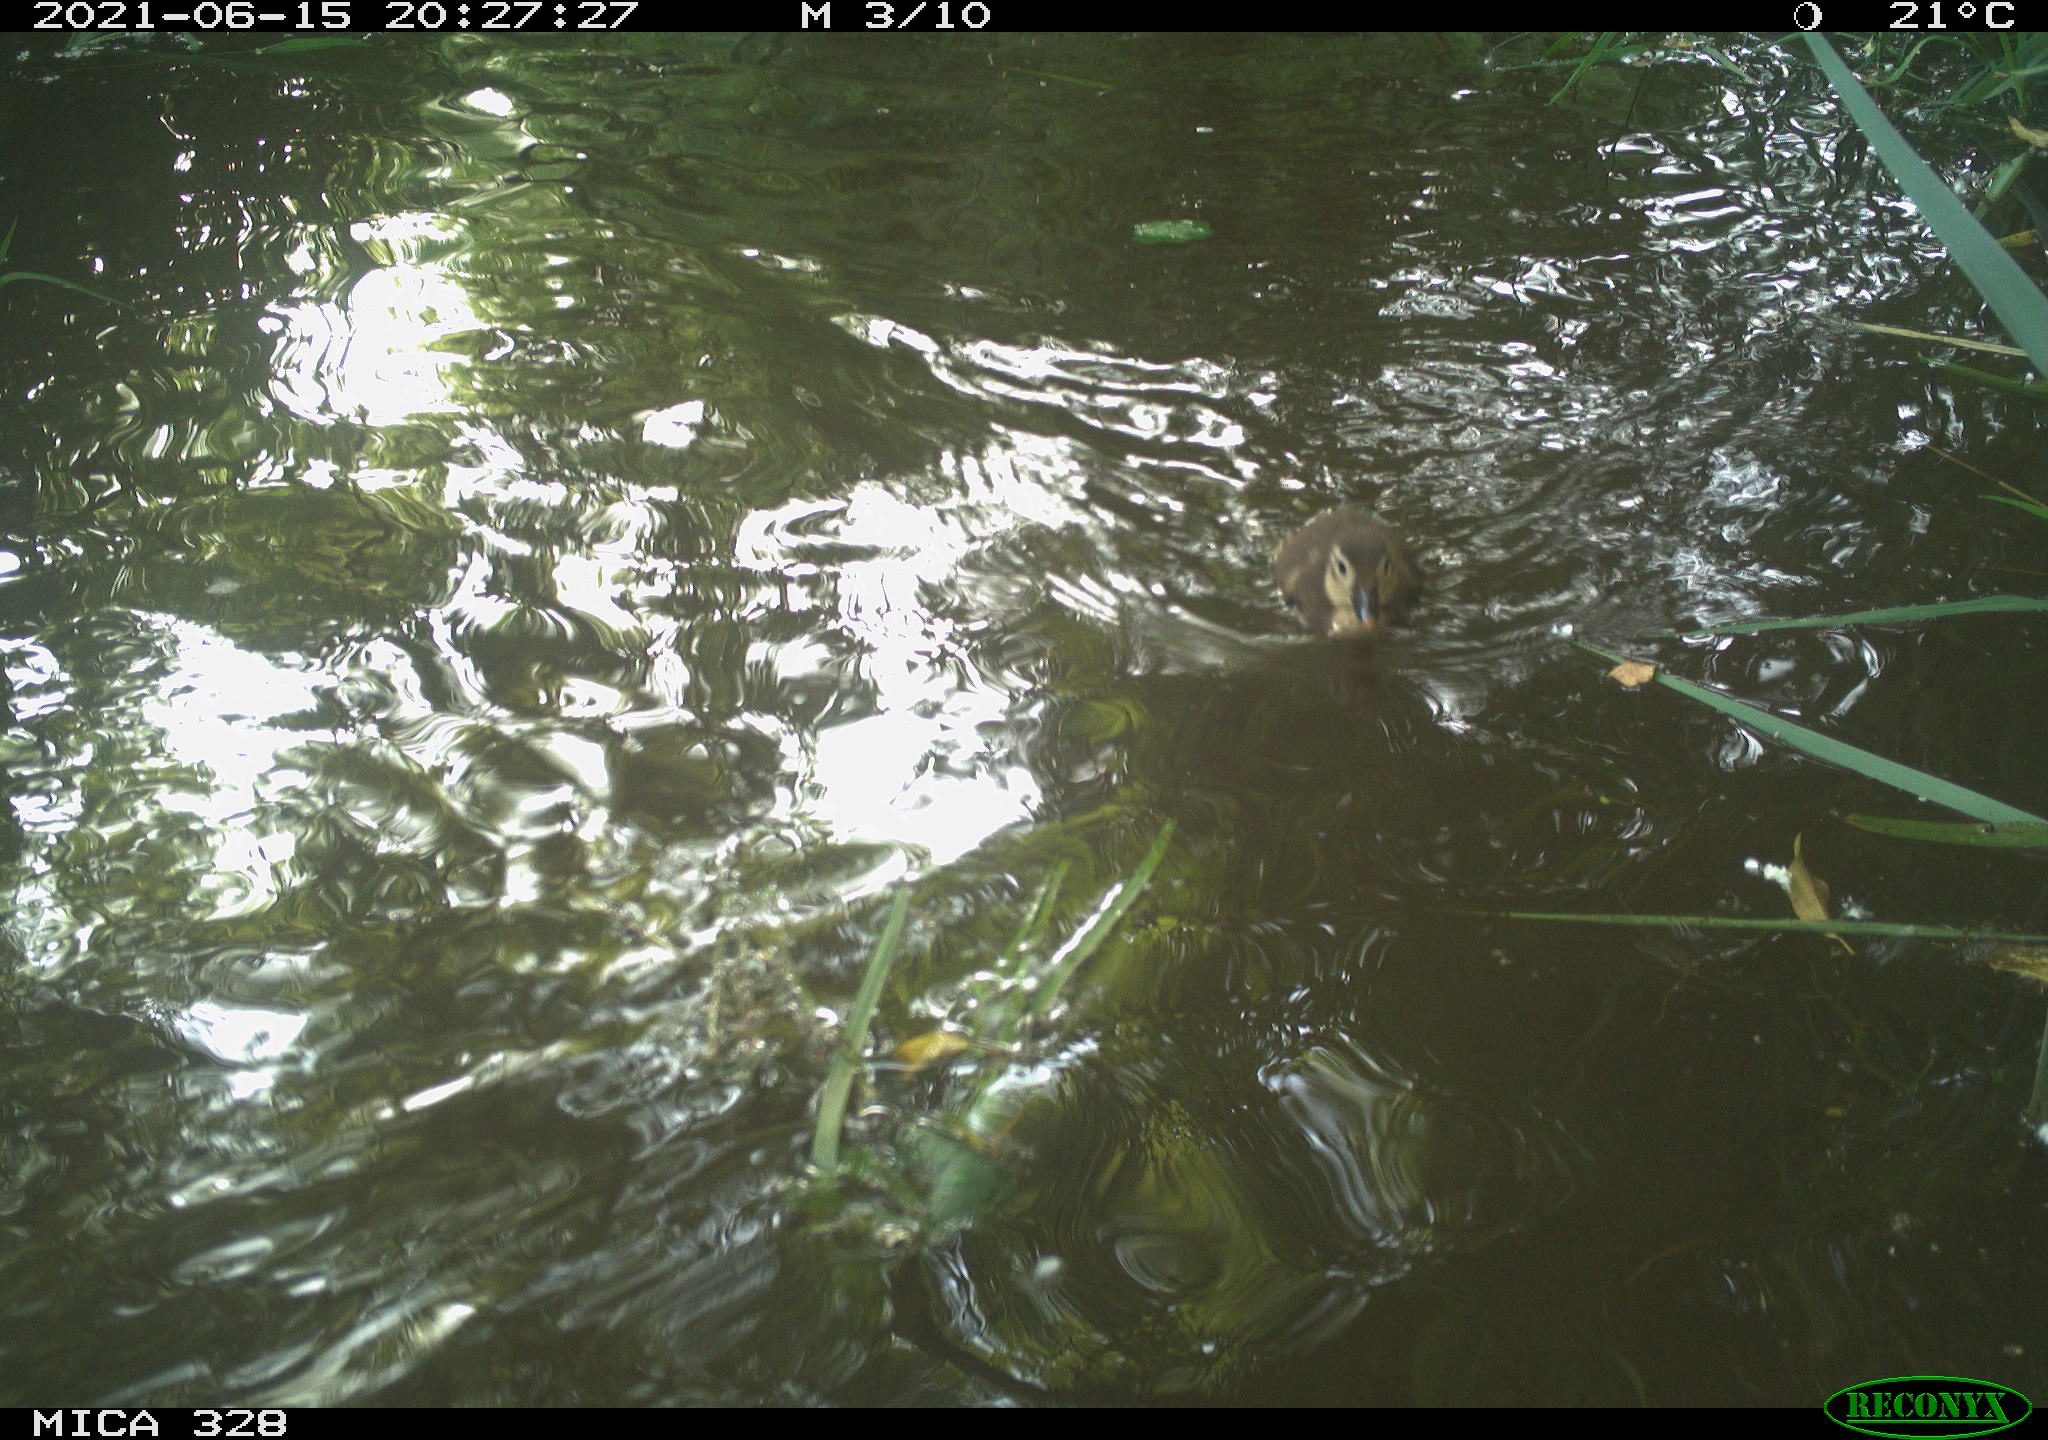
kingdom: Animalia
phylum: Chordata
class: Aves
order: Anseriformes
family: Anatidae
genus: Aix
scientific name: Aix galericulata
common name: Mandarin duck
